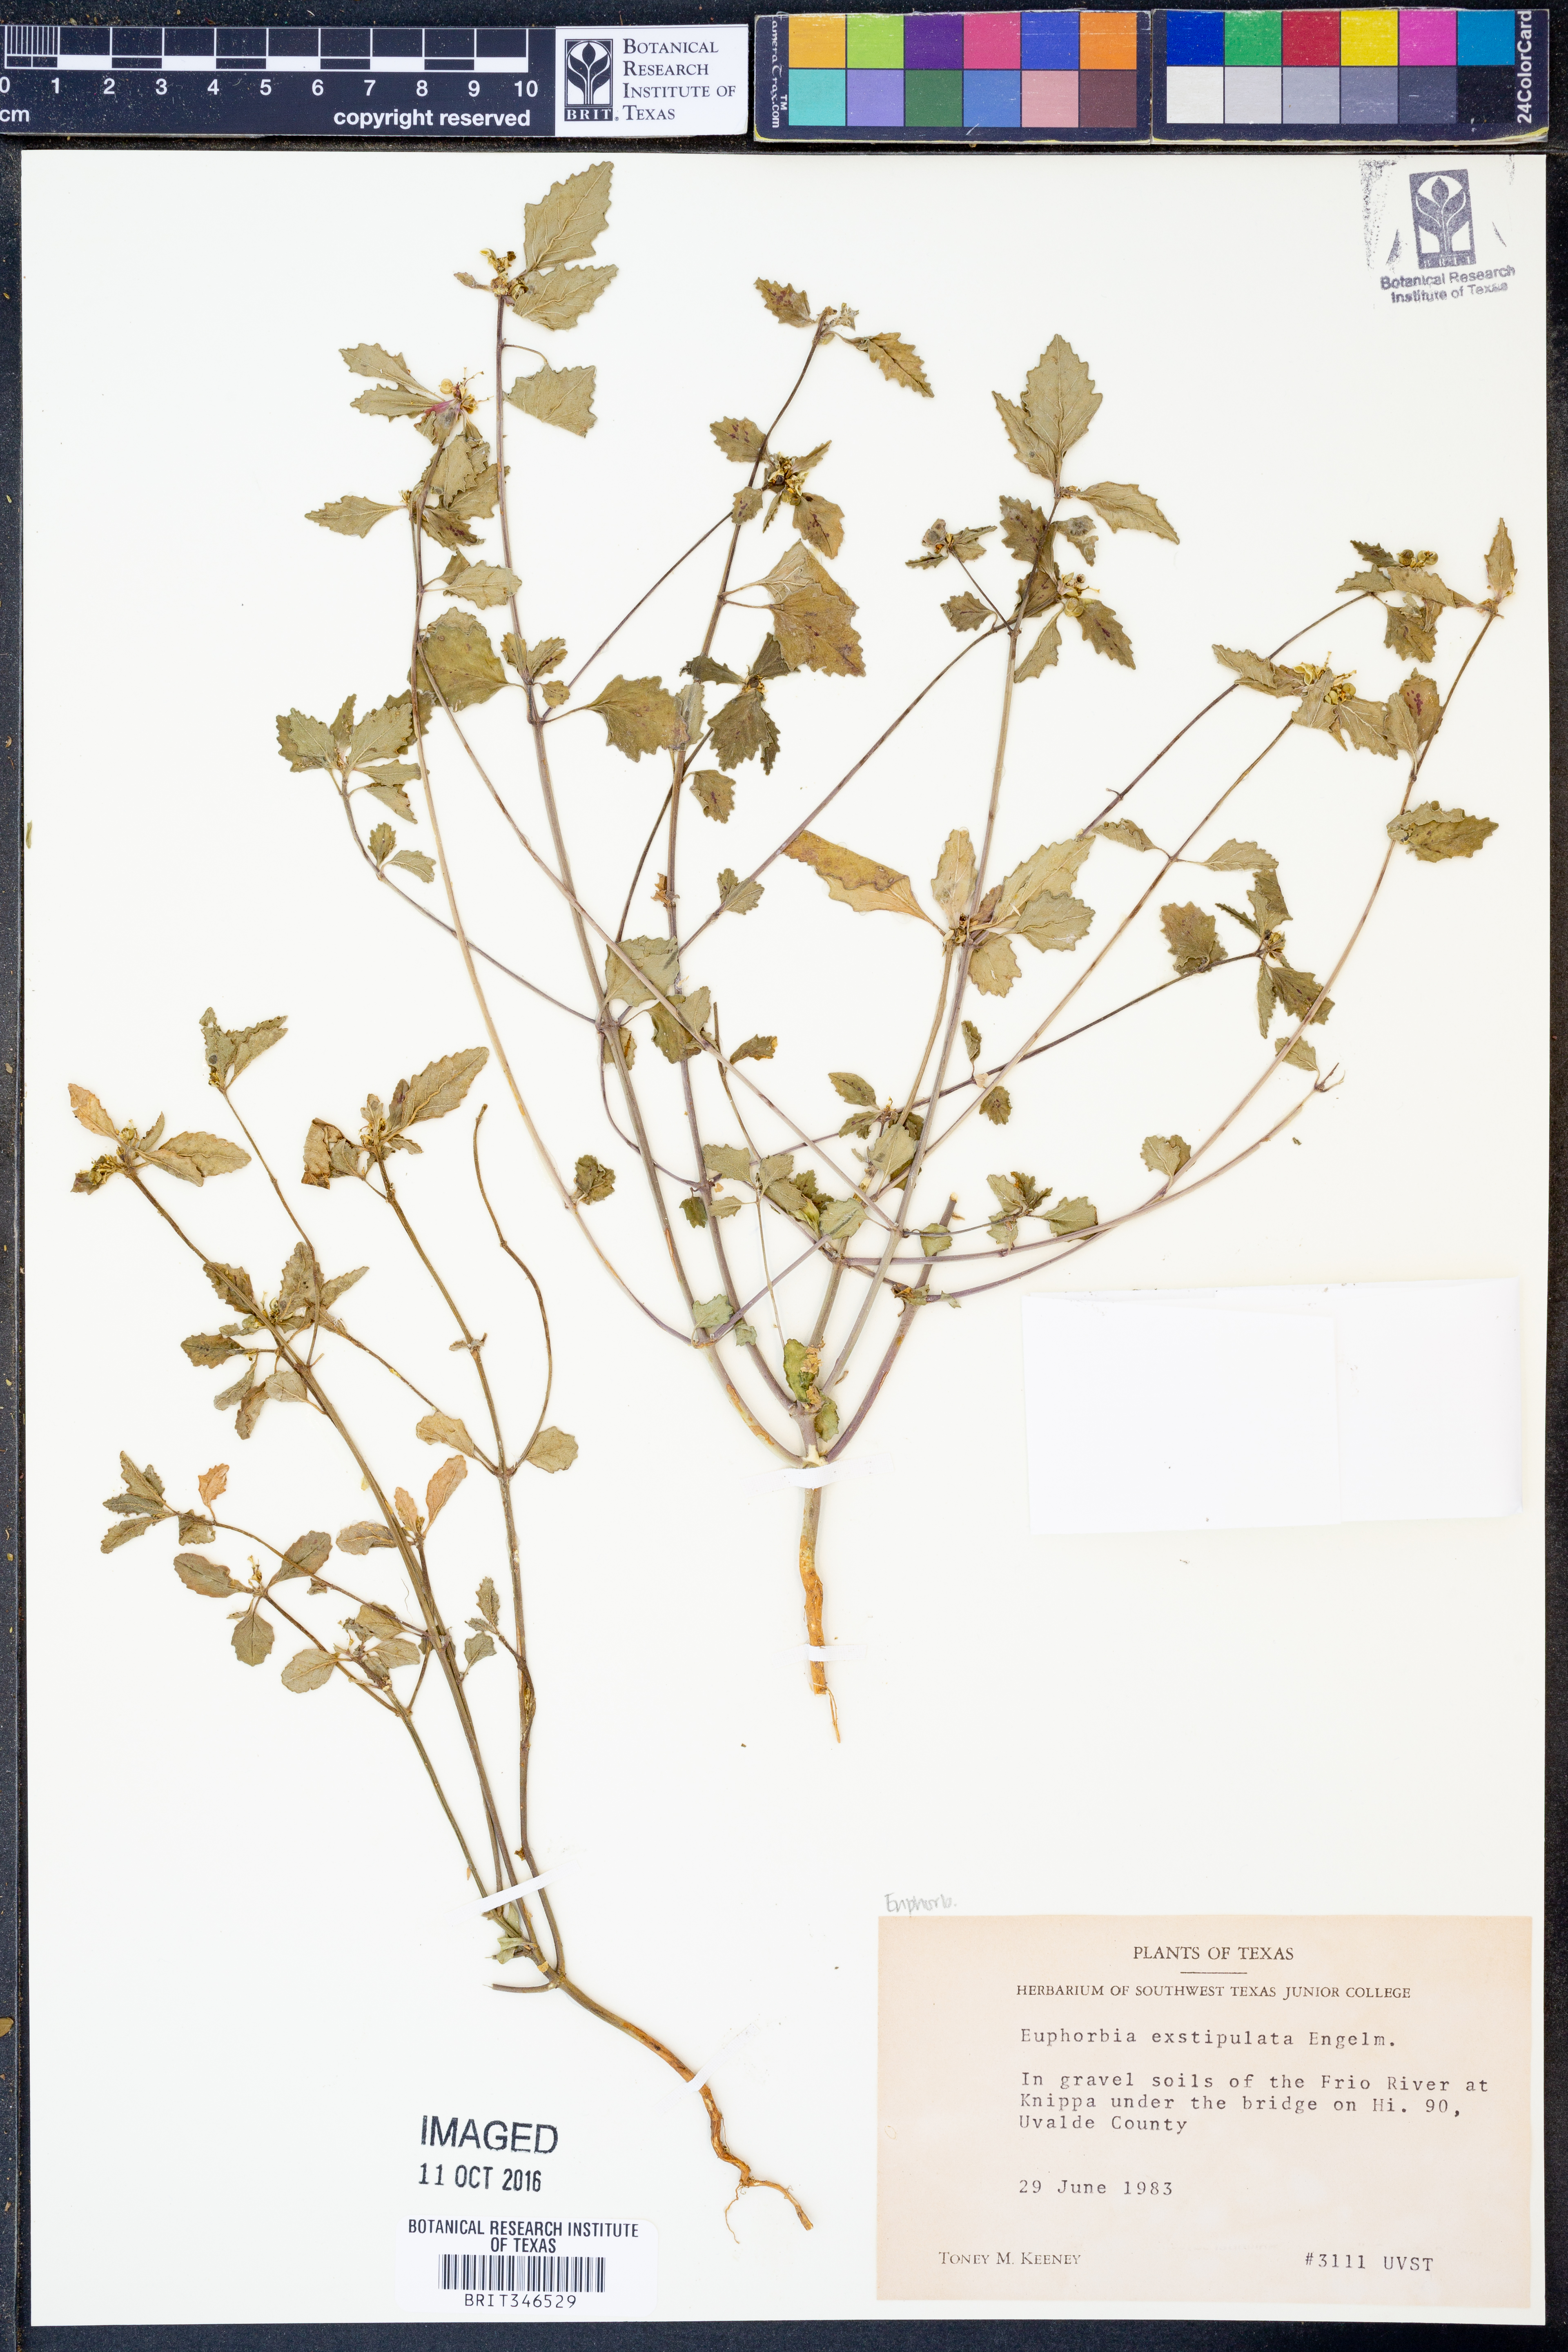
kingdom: Plantae
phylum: Tracheophyta
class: Magnoliopsida
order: Malpighiales
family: Euphorbiaceae
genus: Euphorbia
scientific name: Euphorbia exstipulata
